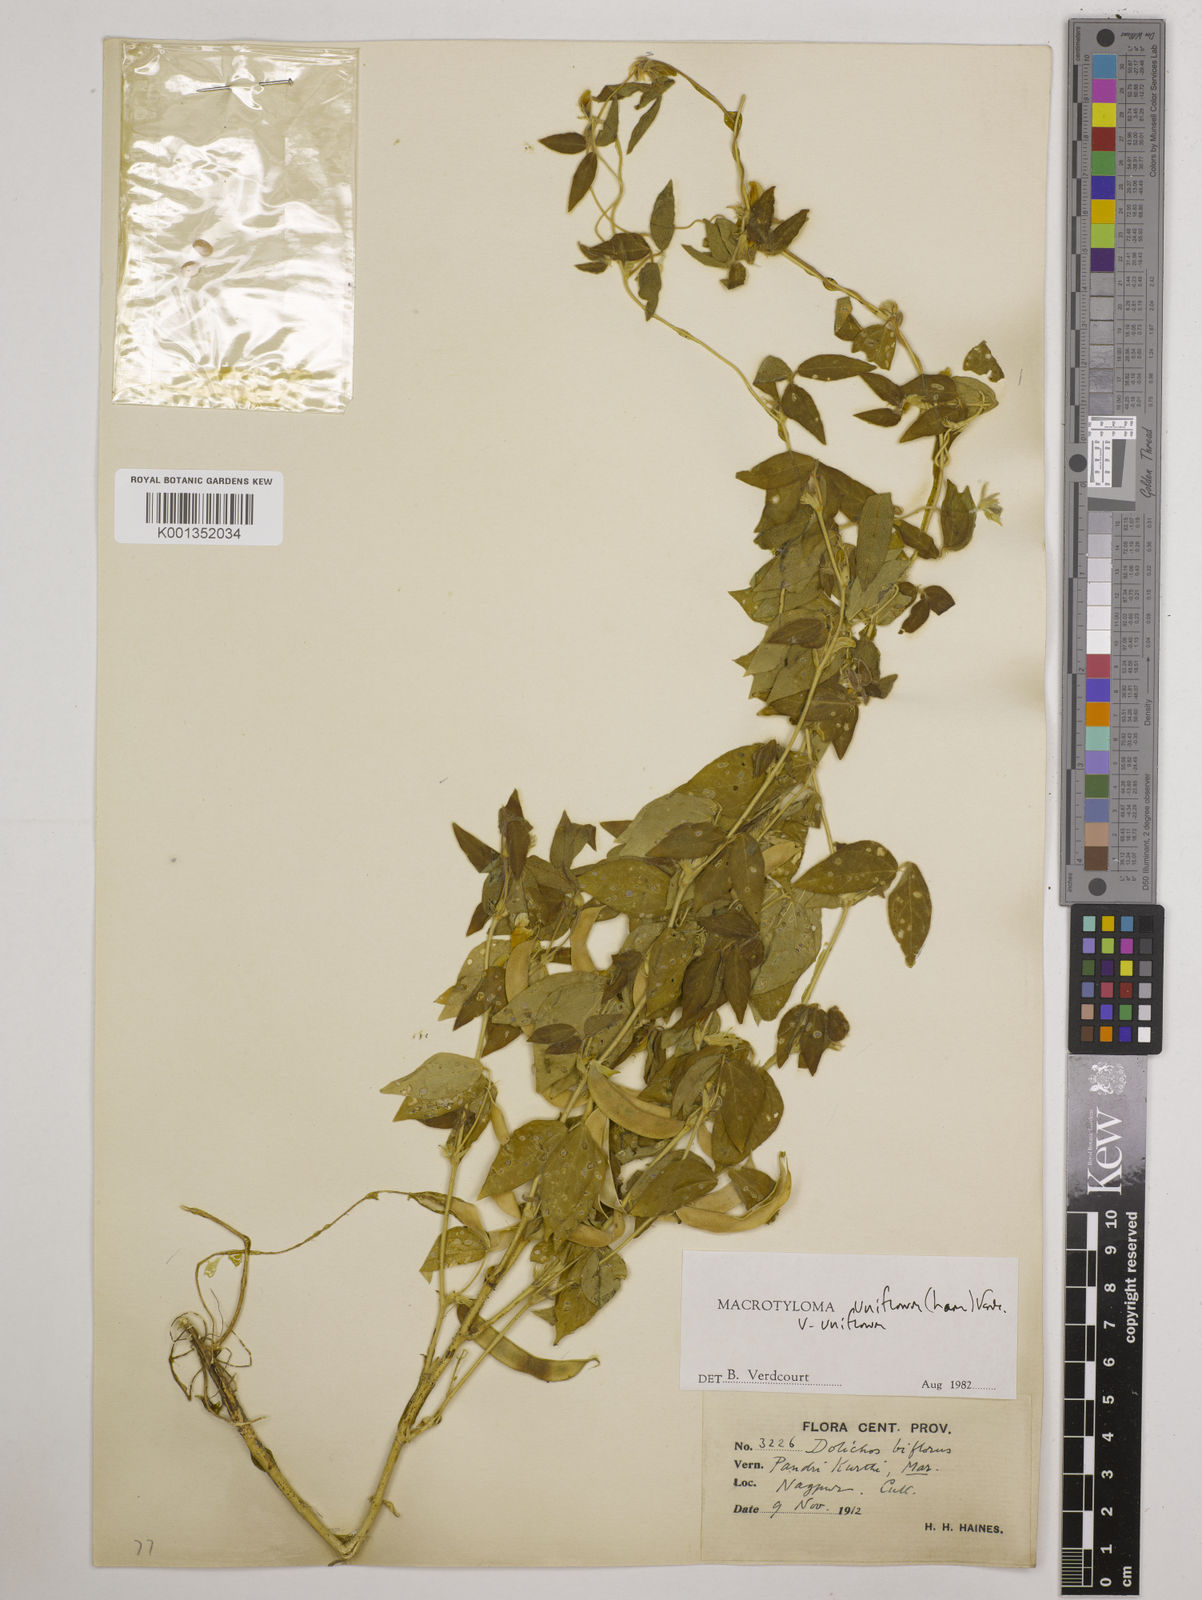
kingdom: Plantae
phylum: Tracheophyta
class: Magnoliopsida
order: Fabales
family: Fabaceae
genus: Macrotyloma
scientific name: Macrotyloma uniflorum
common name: Horse gram
